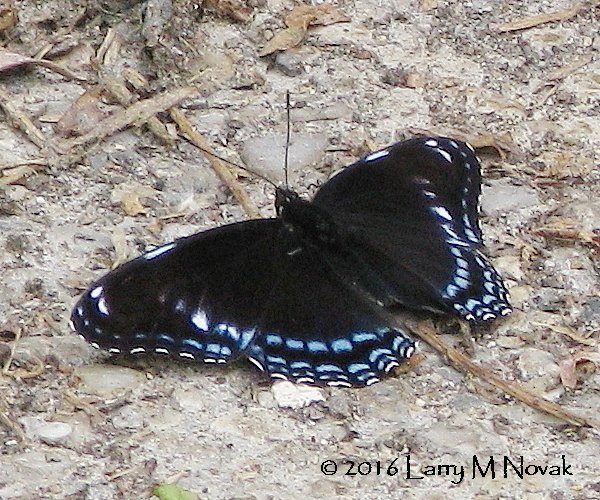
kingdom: Animalia
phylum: Arthropoda
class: Insecta
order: Lepidoptera
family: Nymphalidae
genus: Limenitis
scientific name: Limenitis astyanax
